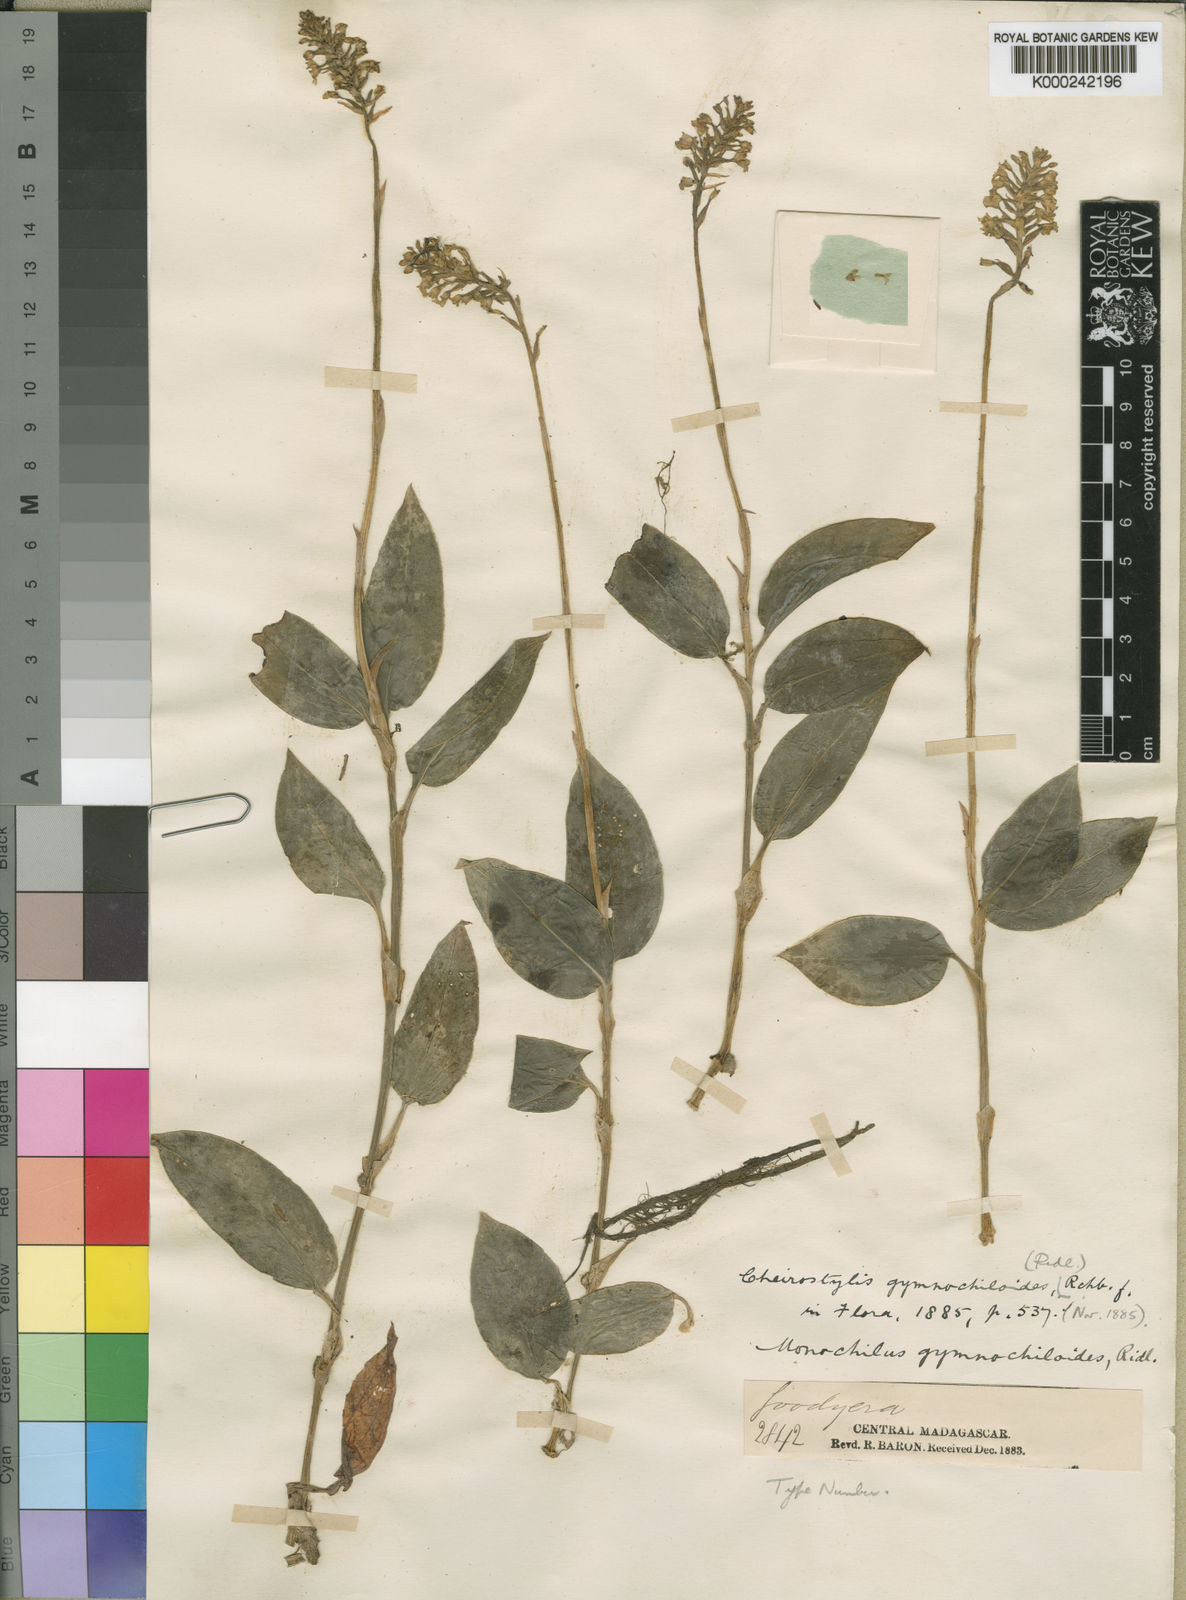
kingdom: Plantae
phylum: Tracheophyta
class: Liliopsida
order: Asparagales
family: Orchidaceae
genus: Cheirostylis
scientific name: Cheirostylis nuda
